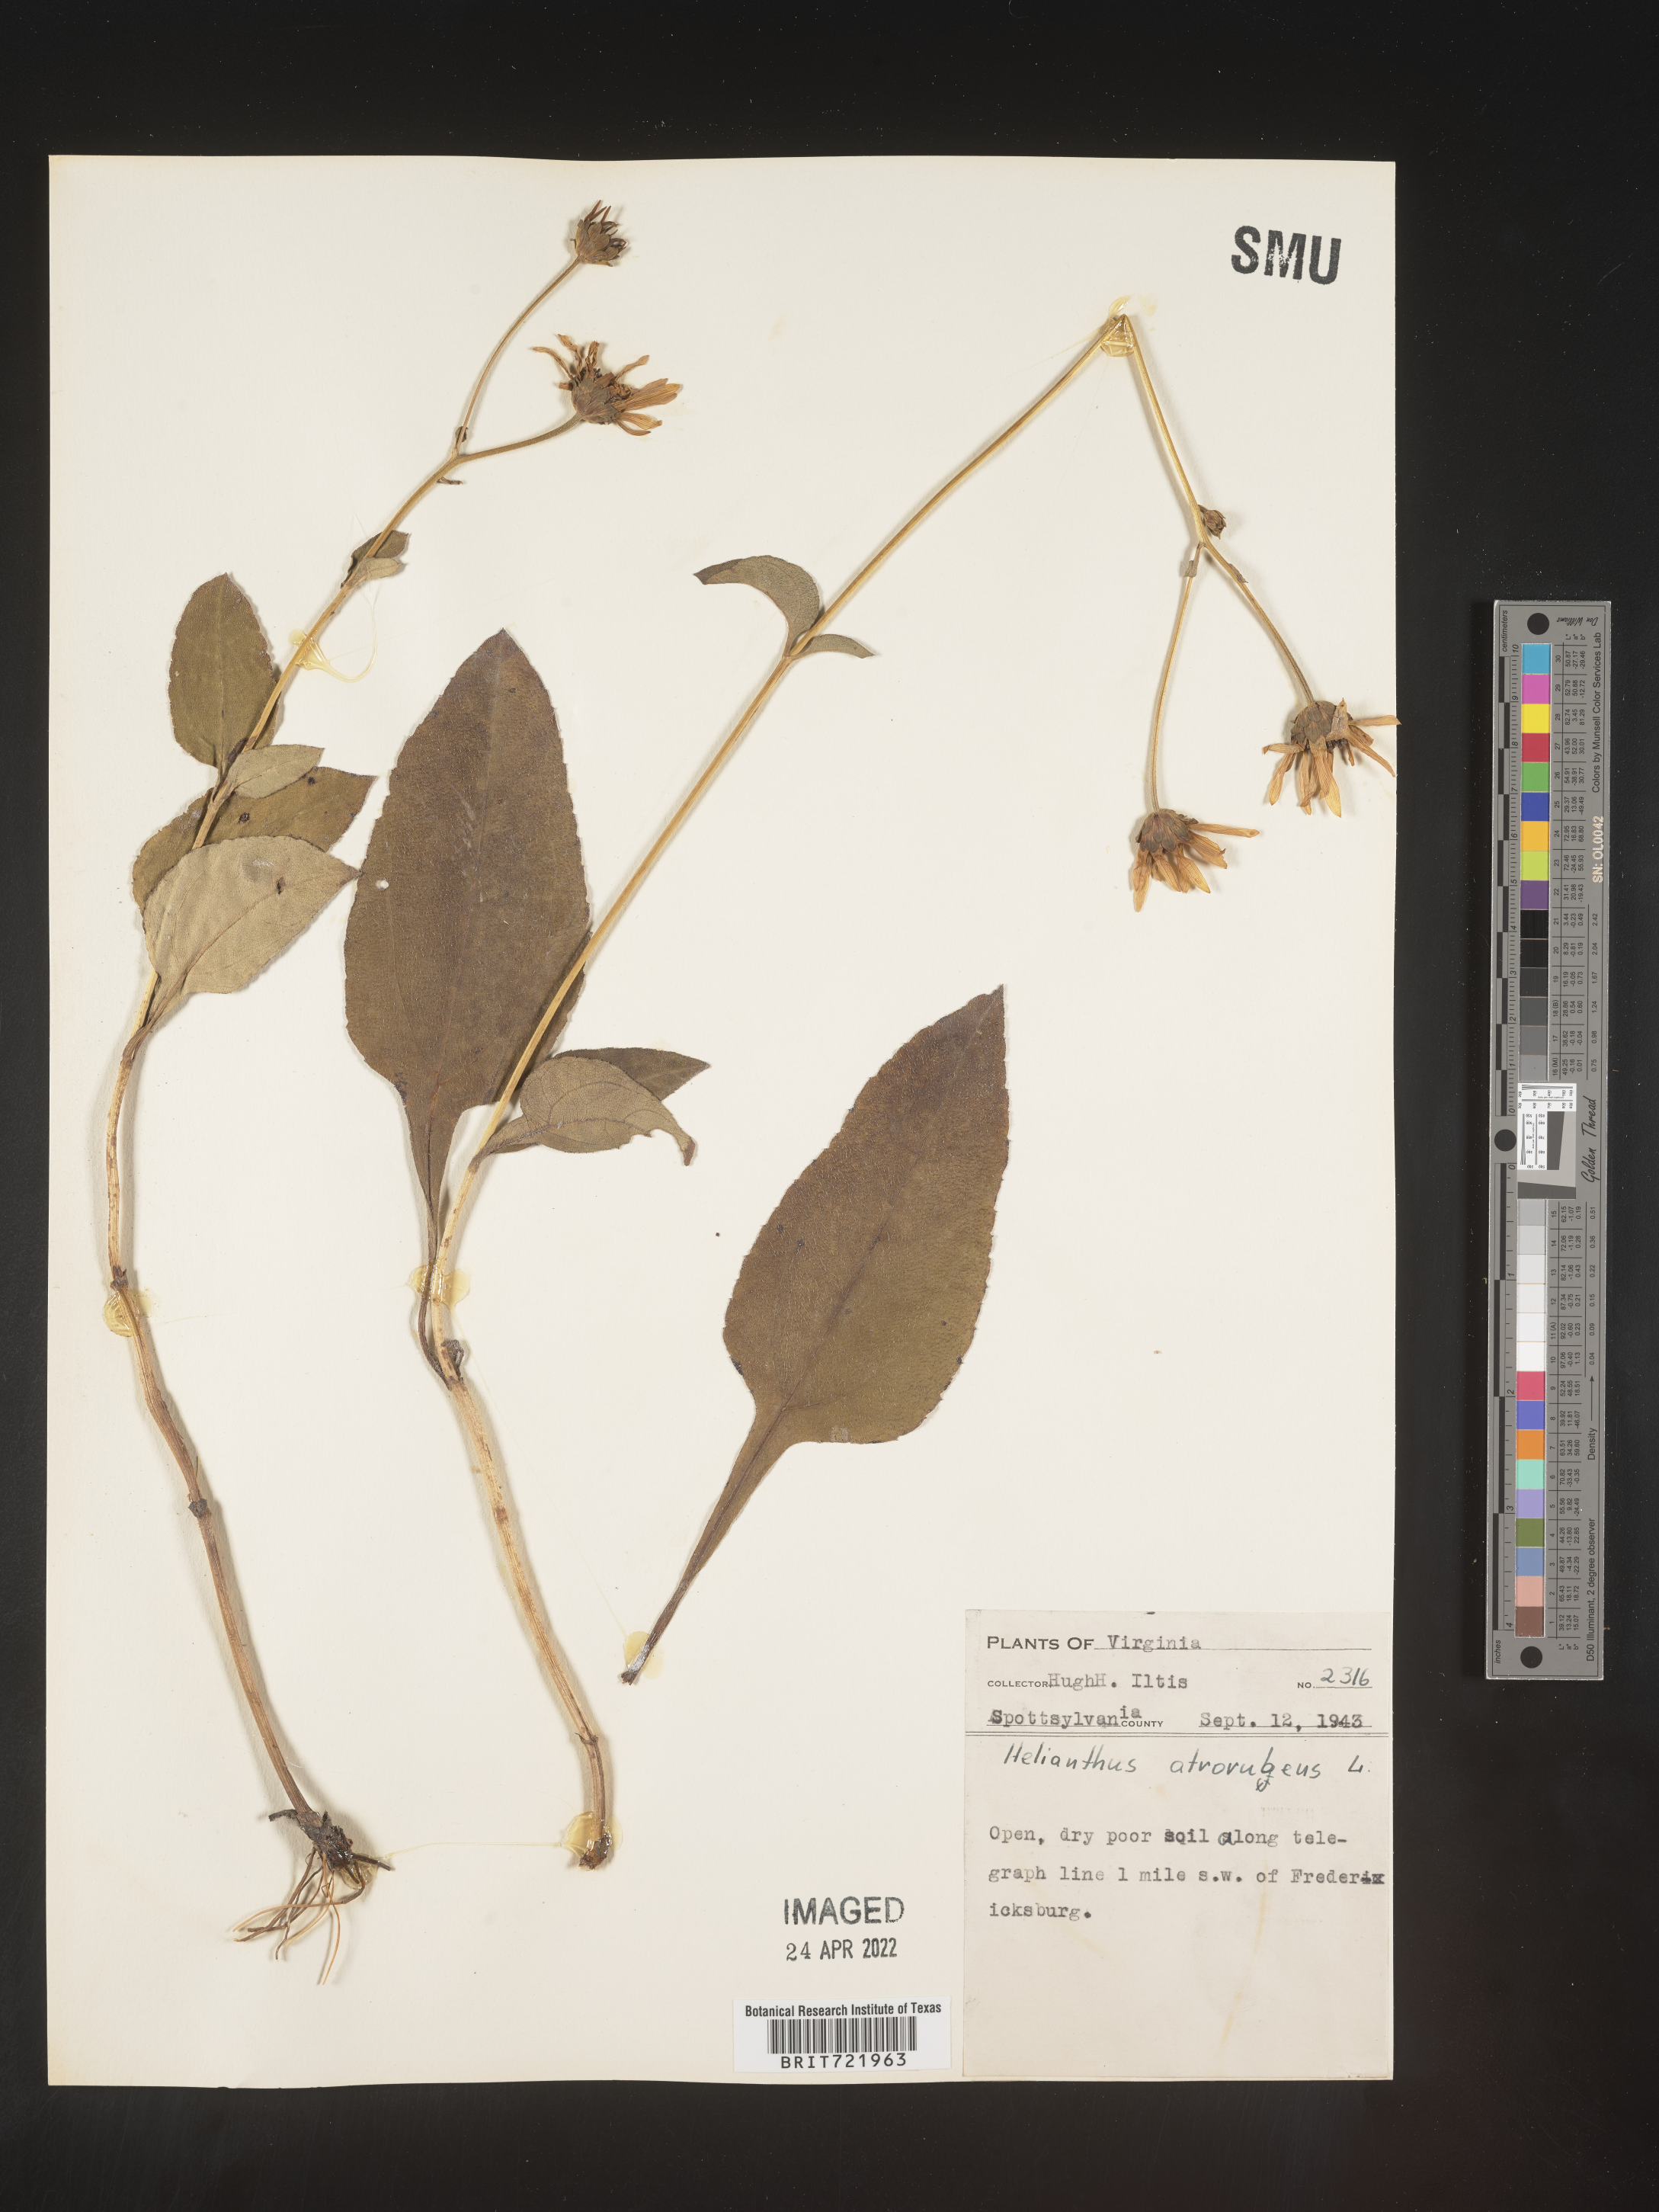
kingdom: Plantae
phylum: Tracheophyta
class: Magnoliopsida
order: Asterales
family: Asteraceae
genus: Helianthus
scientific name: Helianthus atrorubens
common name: Dark-eyed sunflower
